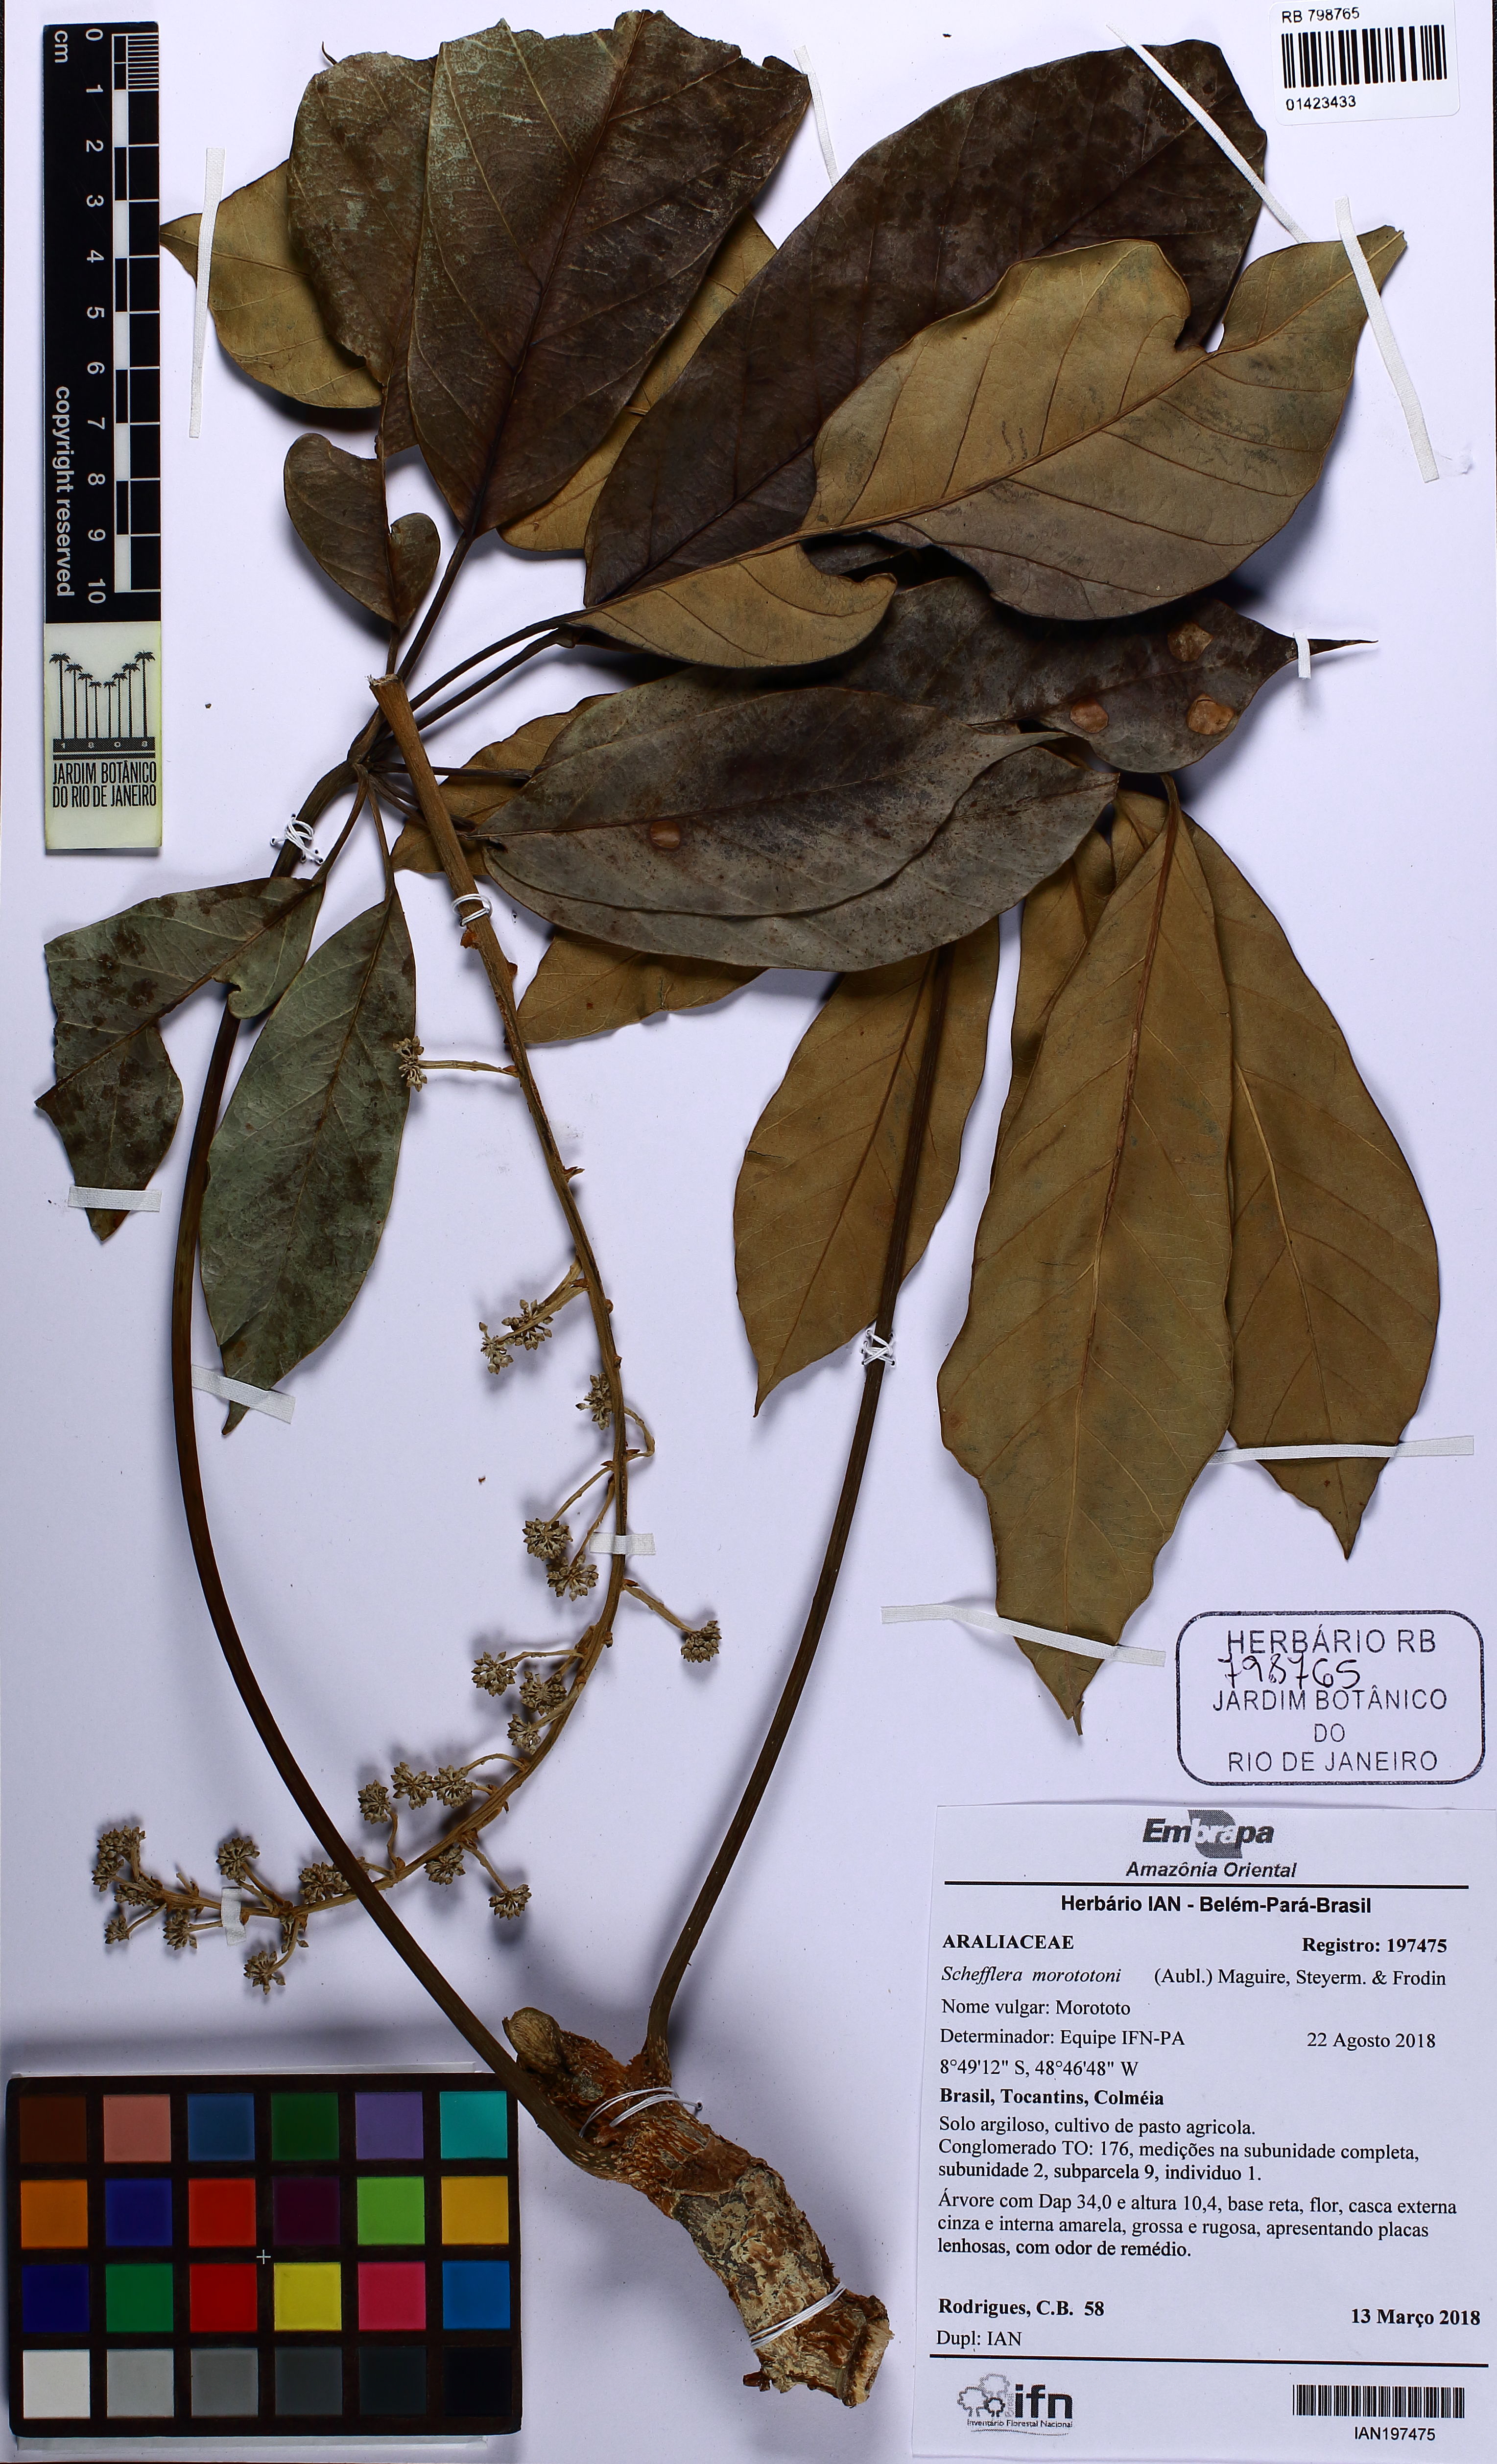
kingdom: Plantae
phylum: Tracheophyta
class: Magnoliopsida
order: Apiales
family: Araliaceae
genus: Didymopanax
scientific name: Didymopanax morototoni
